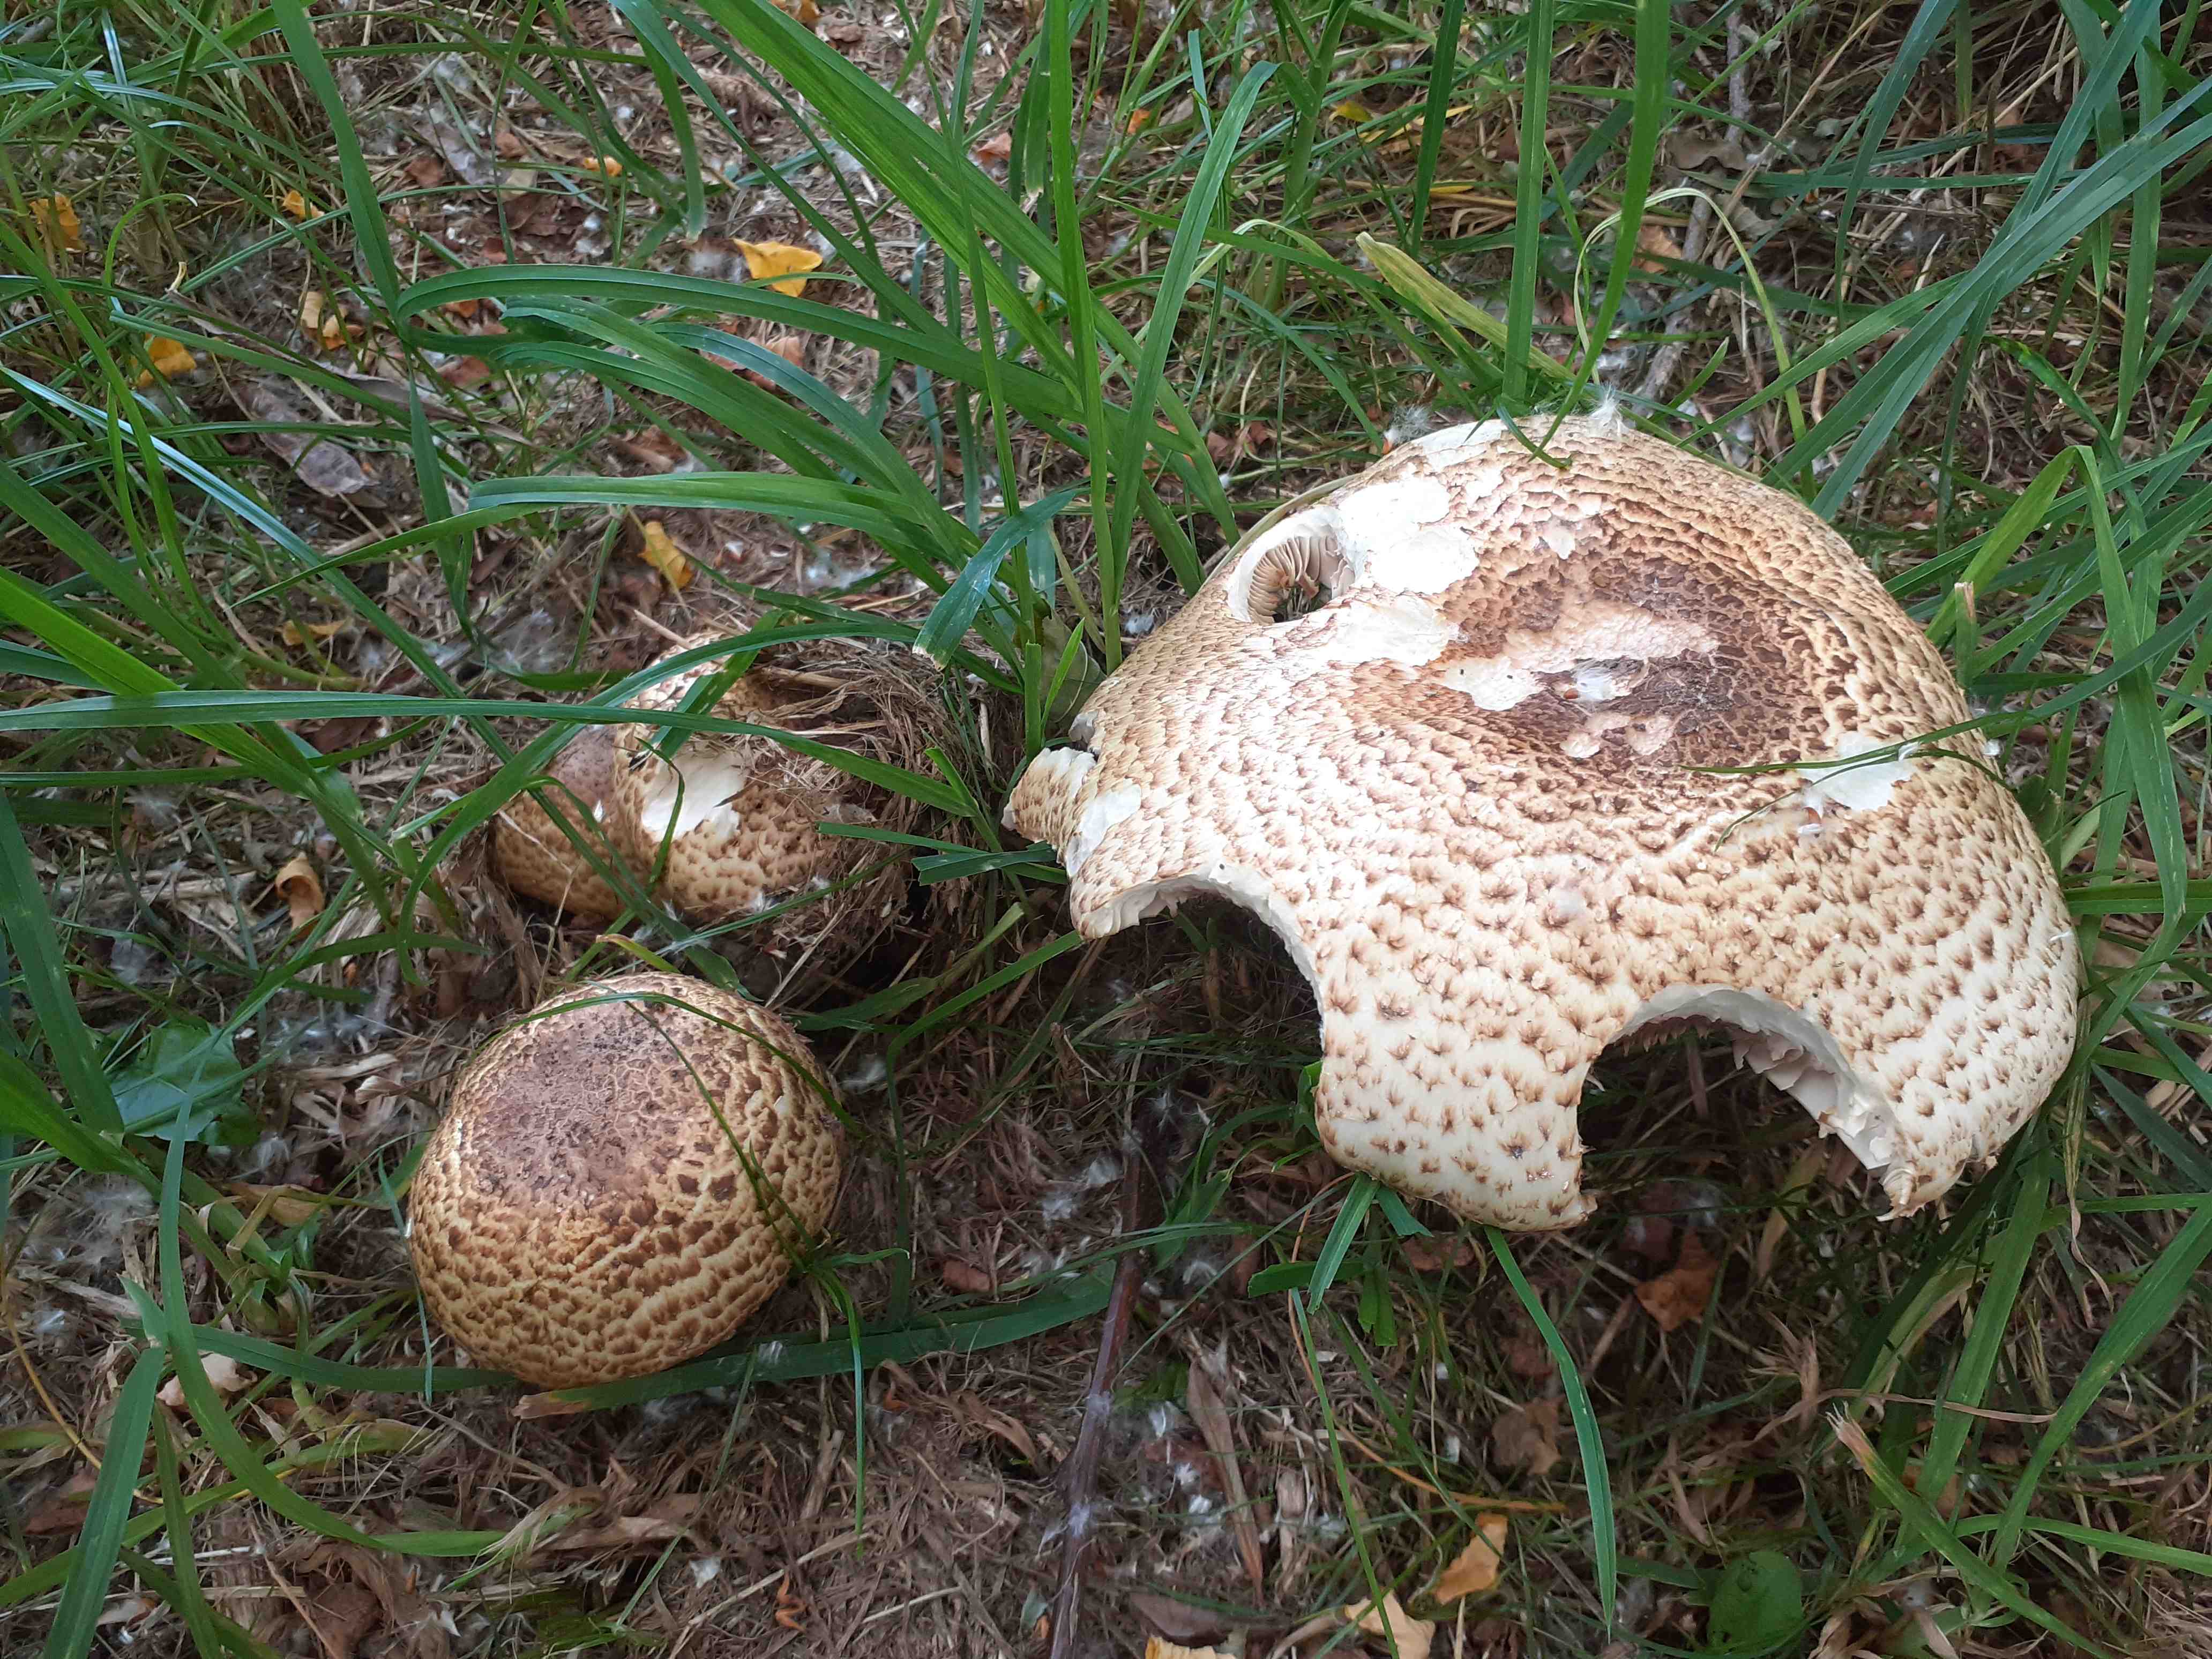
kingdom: Fungi
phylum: Basidiomycota
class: Agaricomycetes
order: Agaricales
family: Agaricaceae
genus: Agaricus
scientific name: Agaricus augustus
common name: prægtig champignon
